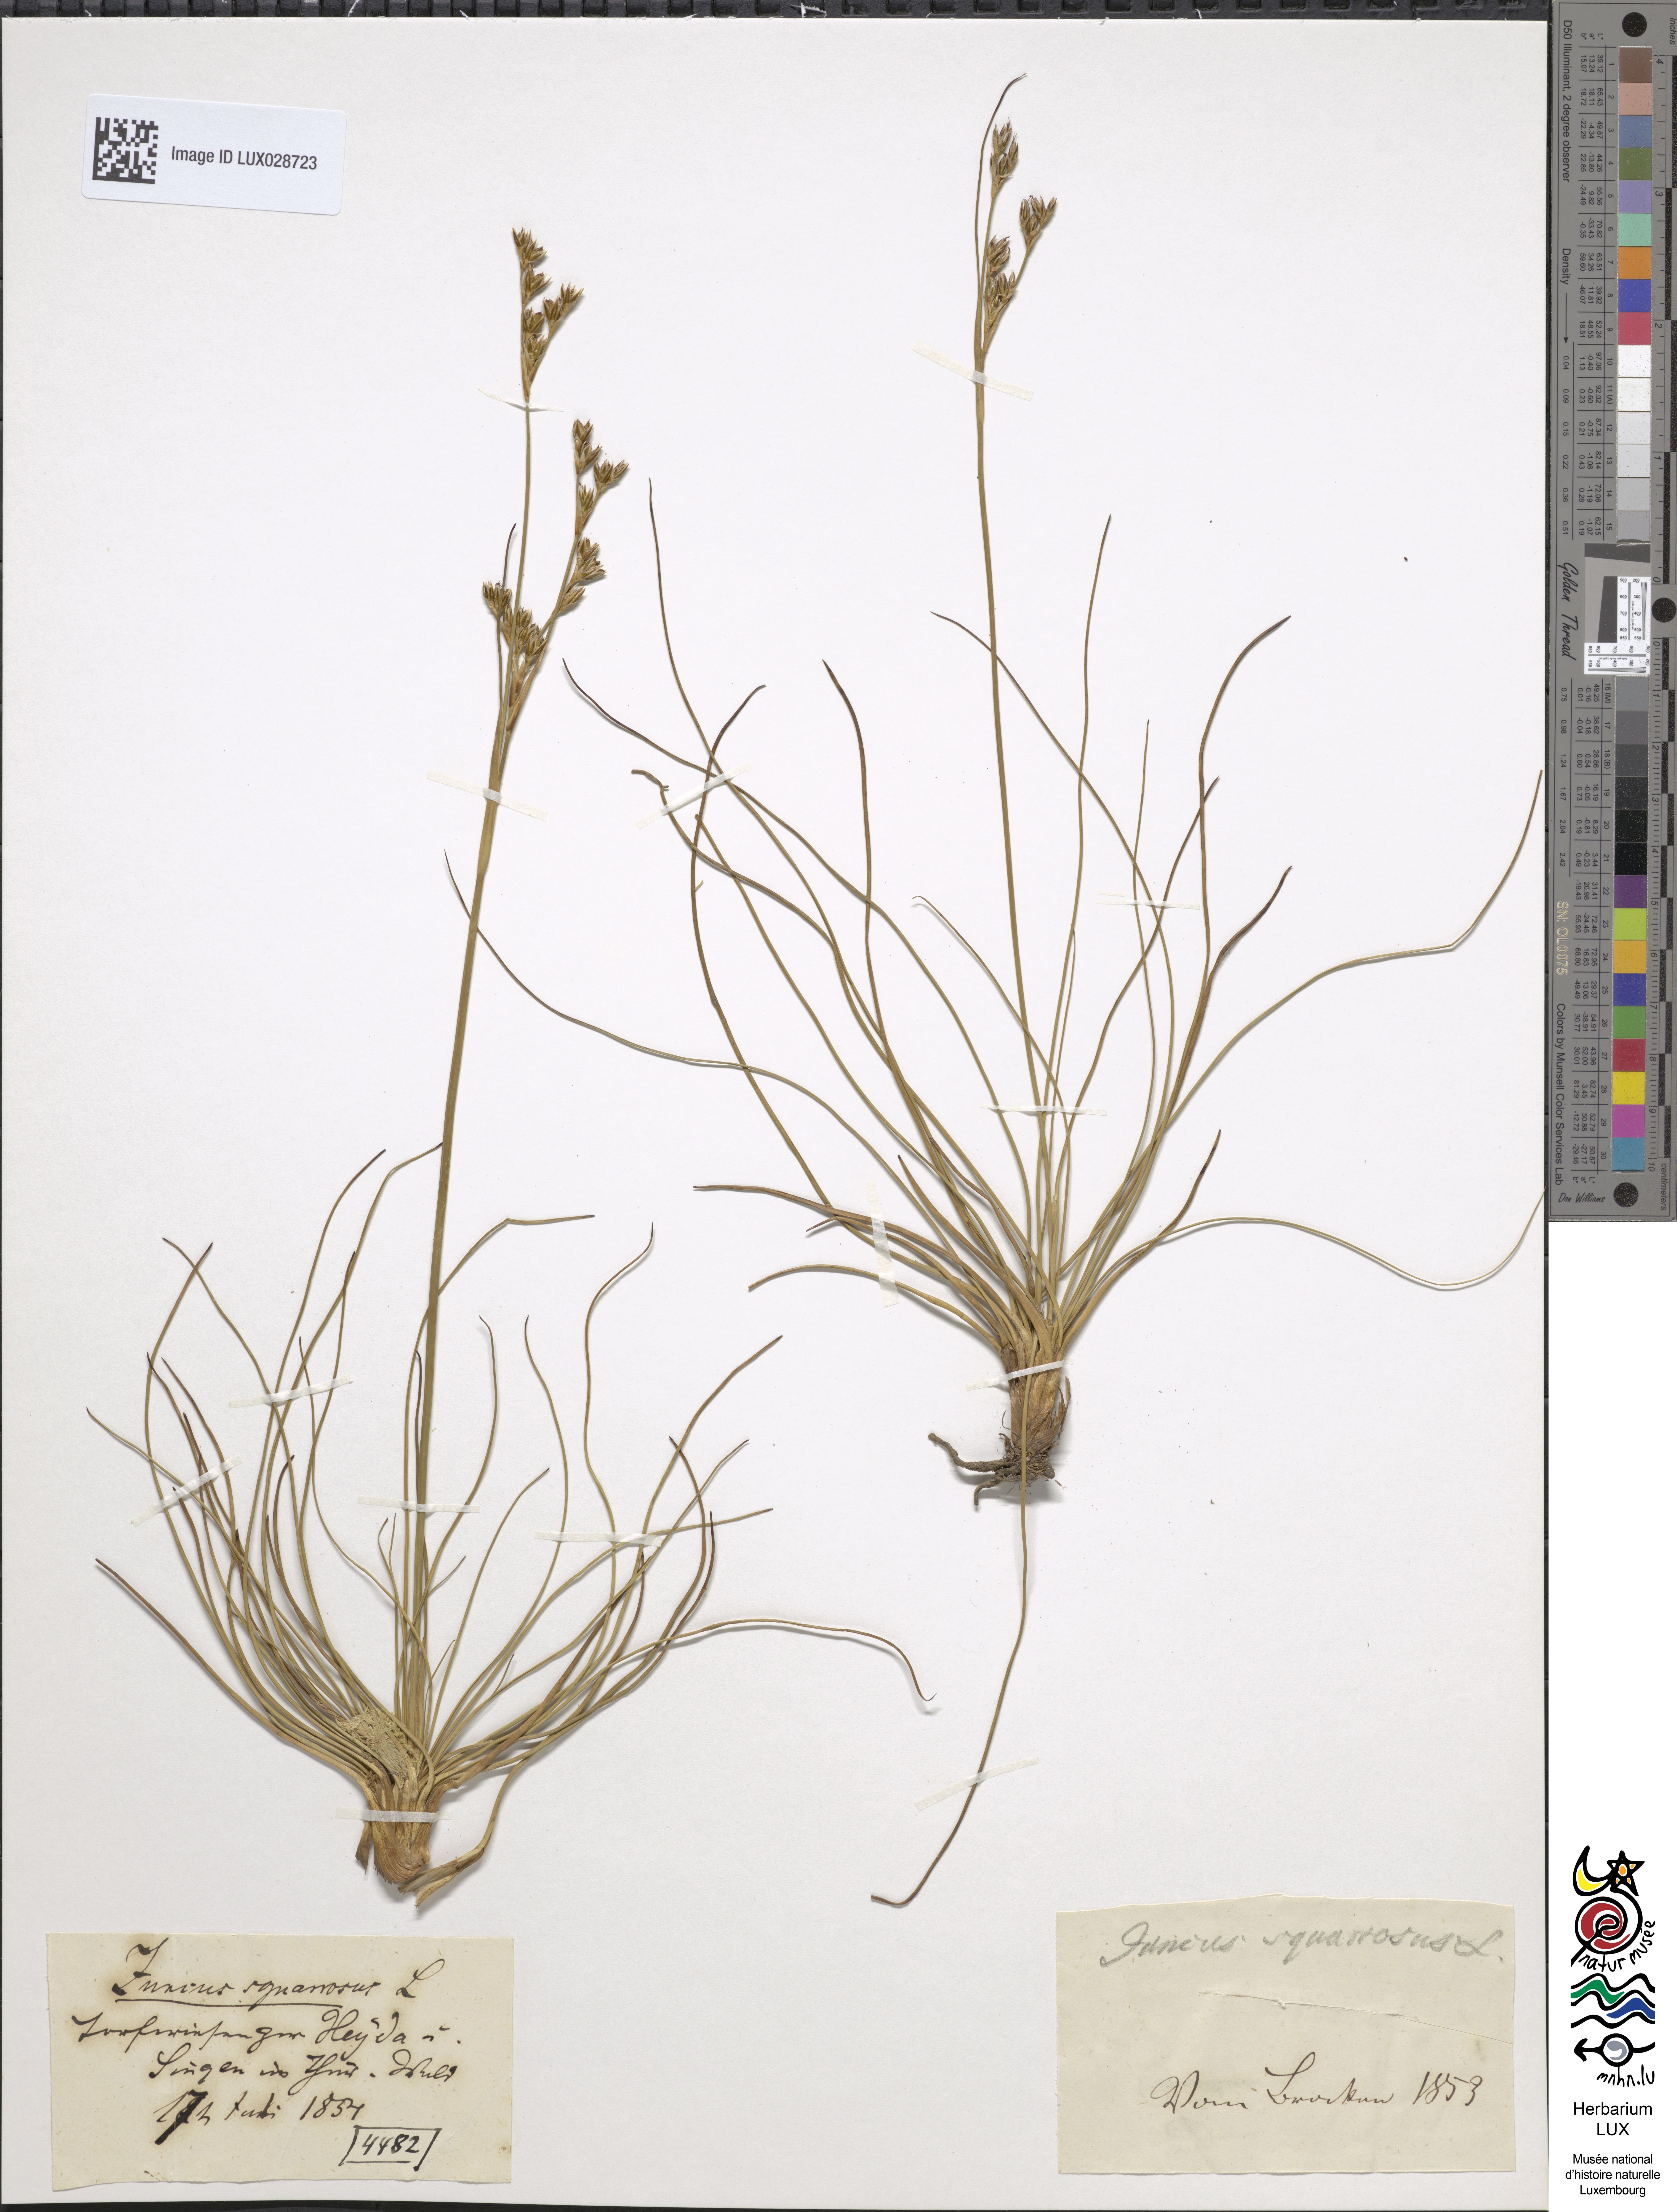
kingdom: Plantae
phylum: Tracheophyta
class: Liliopsida
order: Poales
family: Juncaceae
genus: Juncus
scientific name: Juncus squarrosus
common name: Heath rush
